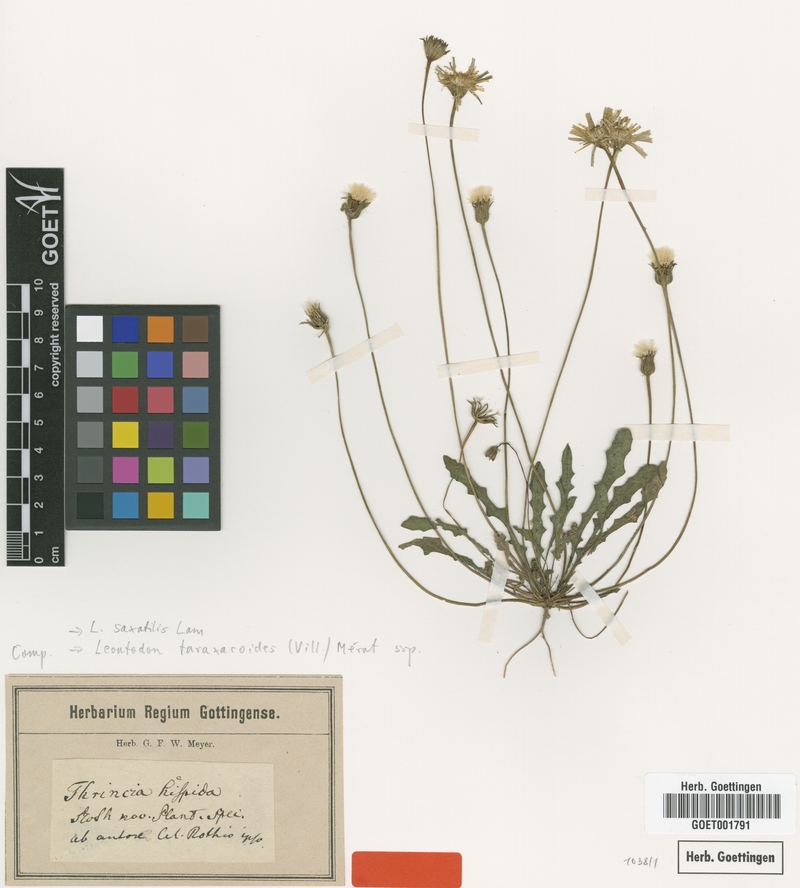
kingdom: Plantae
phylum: Tracheophyta
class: Magnoliopsida
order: Asterales
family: Asteraceae
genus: Thrincia
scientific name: Thrincia saxatilis
